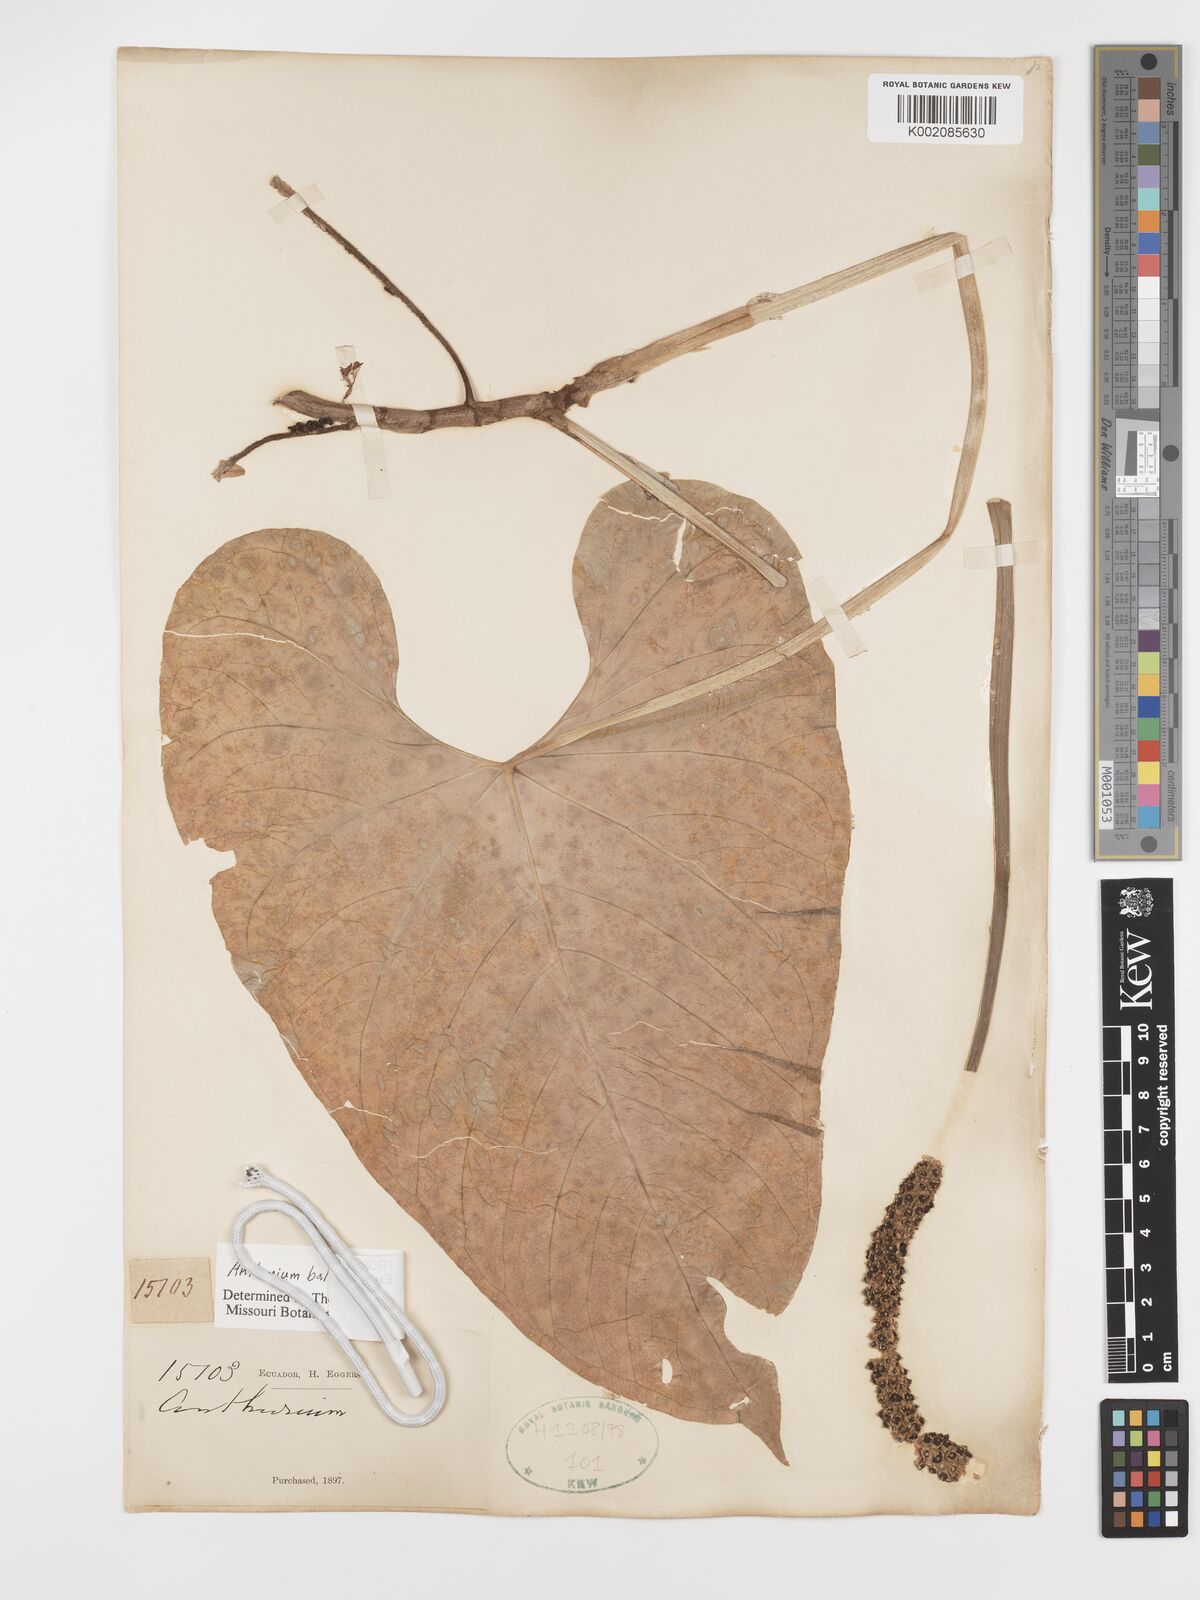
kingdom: Plantae
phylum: Tracheophyta
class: Liliopsida
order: Alismatales
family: Araceae
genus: Anthurium
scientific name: Anthurium balaoanum
